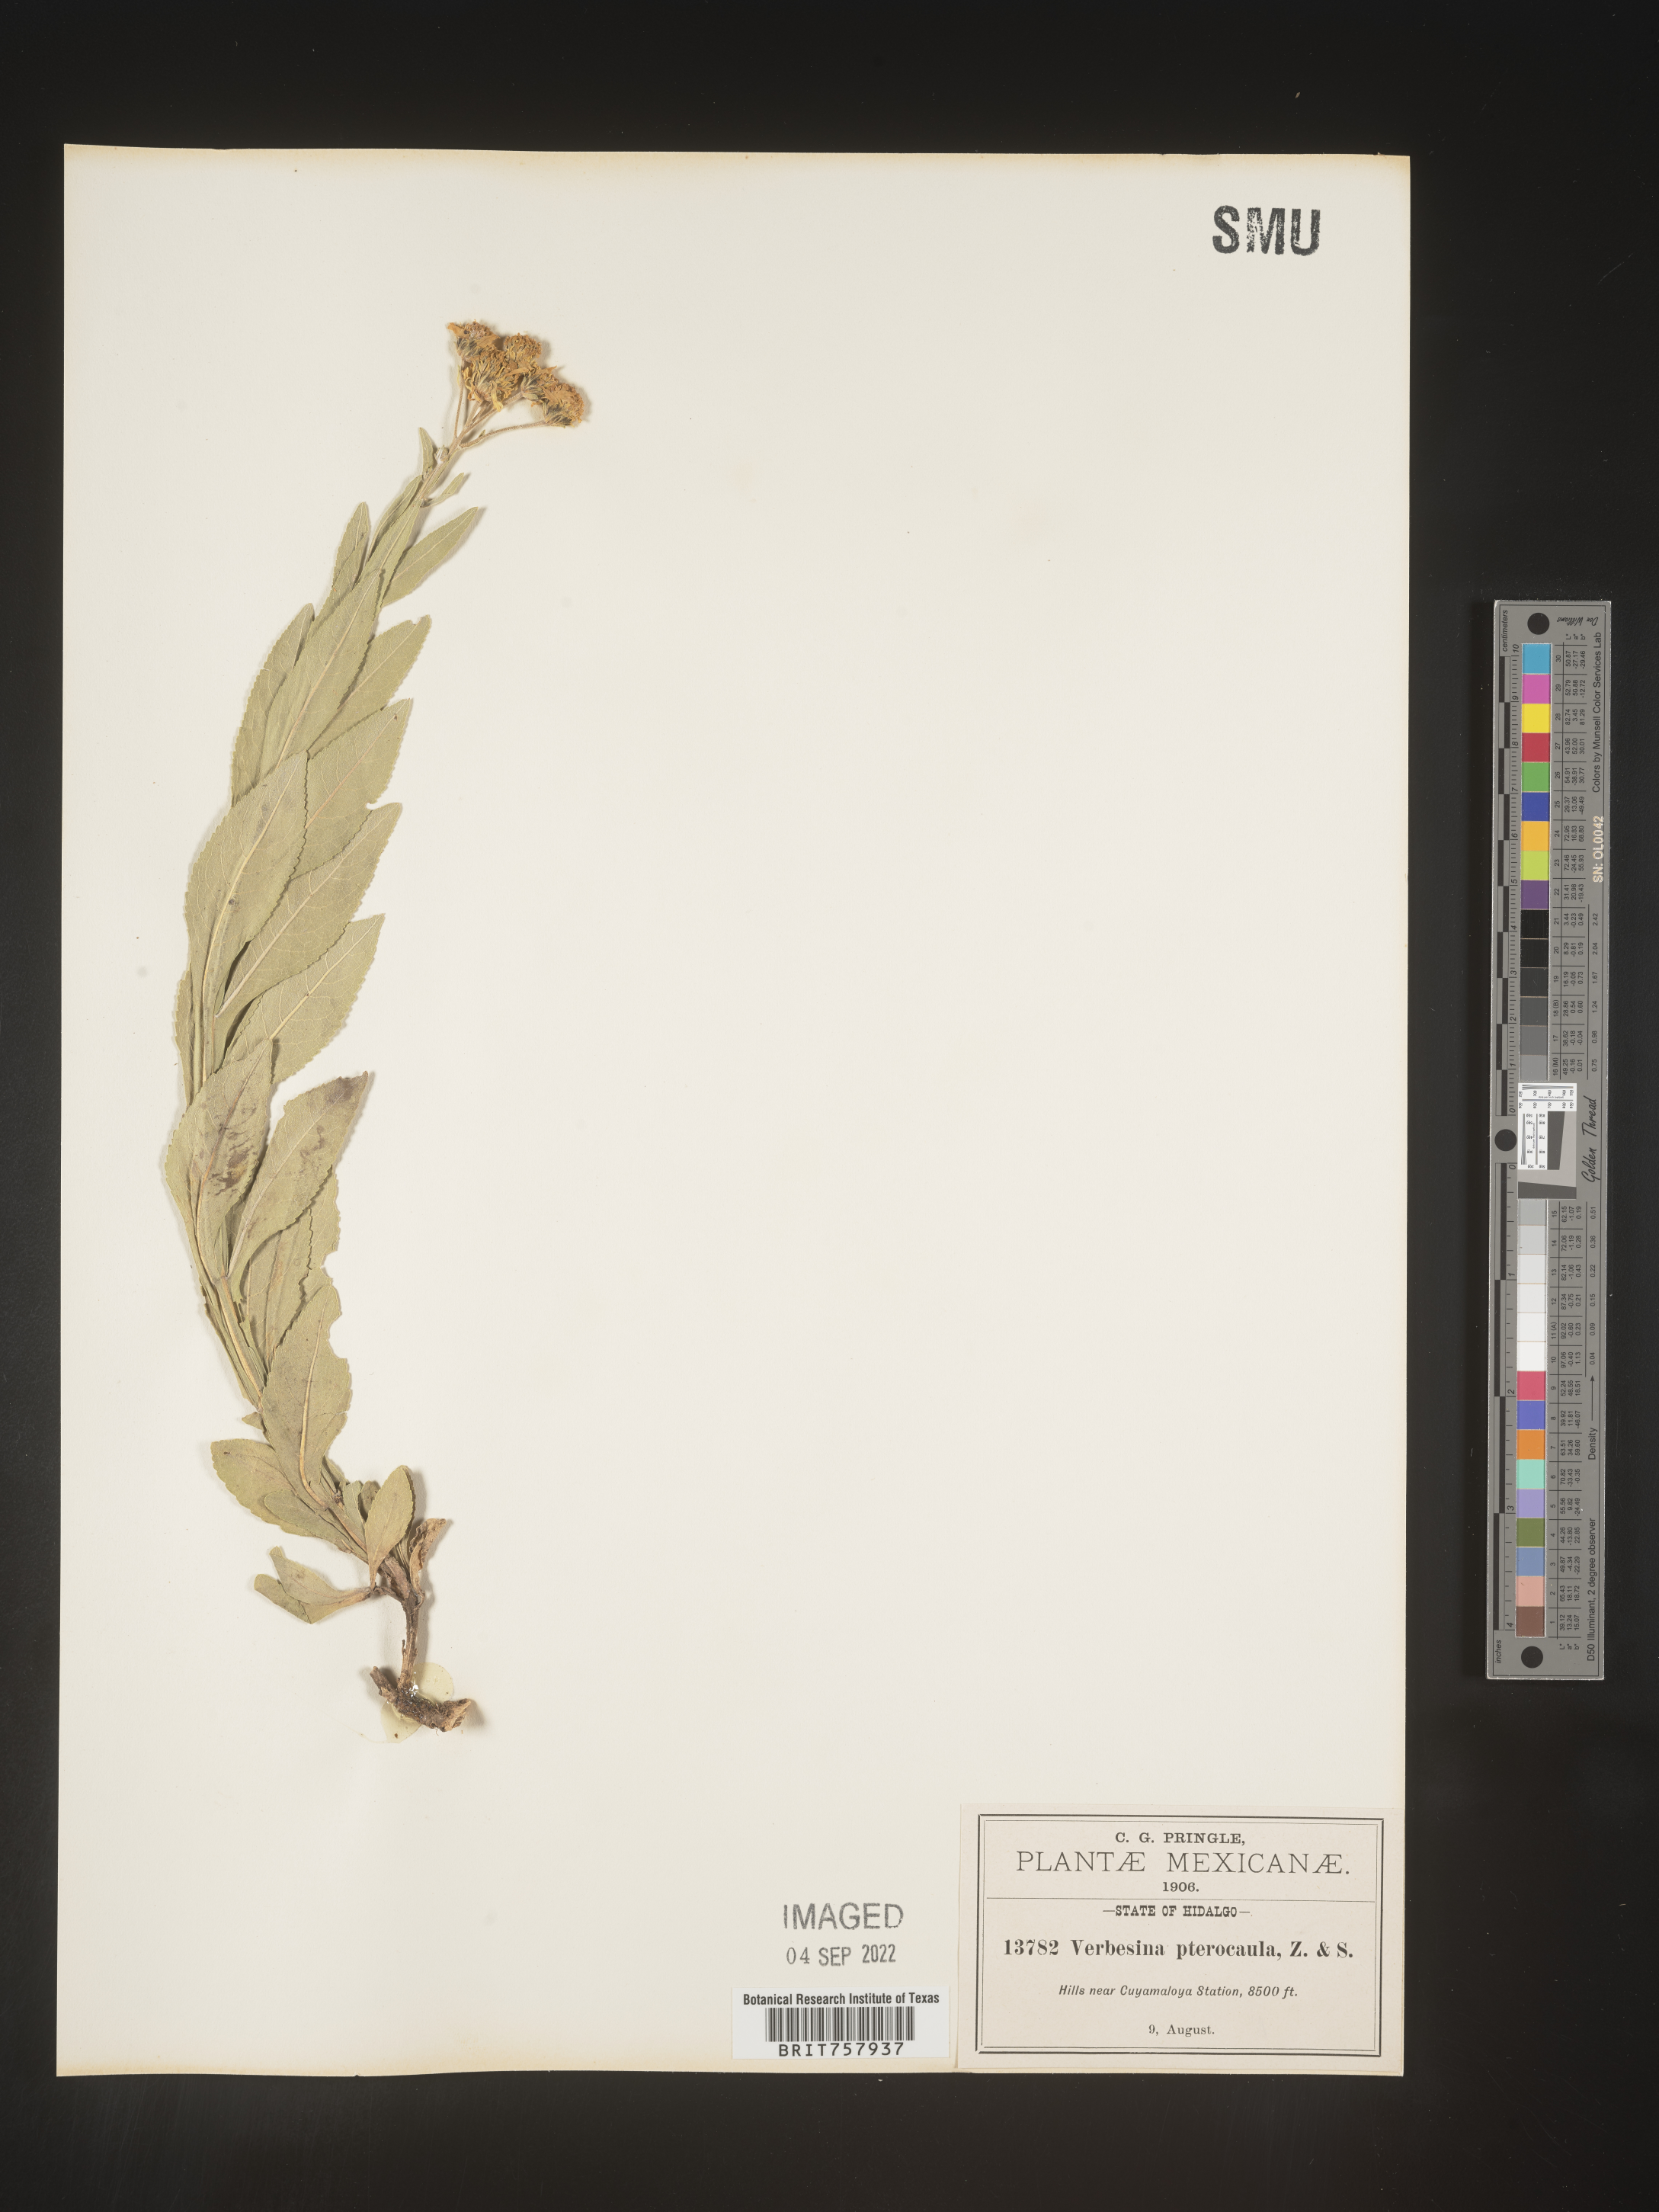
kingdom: Plantae
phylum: Tracheophyta
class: Magnoliopsida
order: Asterales
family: Asteraceae
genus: Verbesina
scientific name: Verbesina
